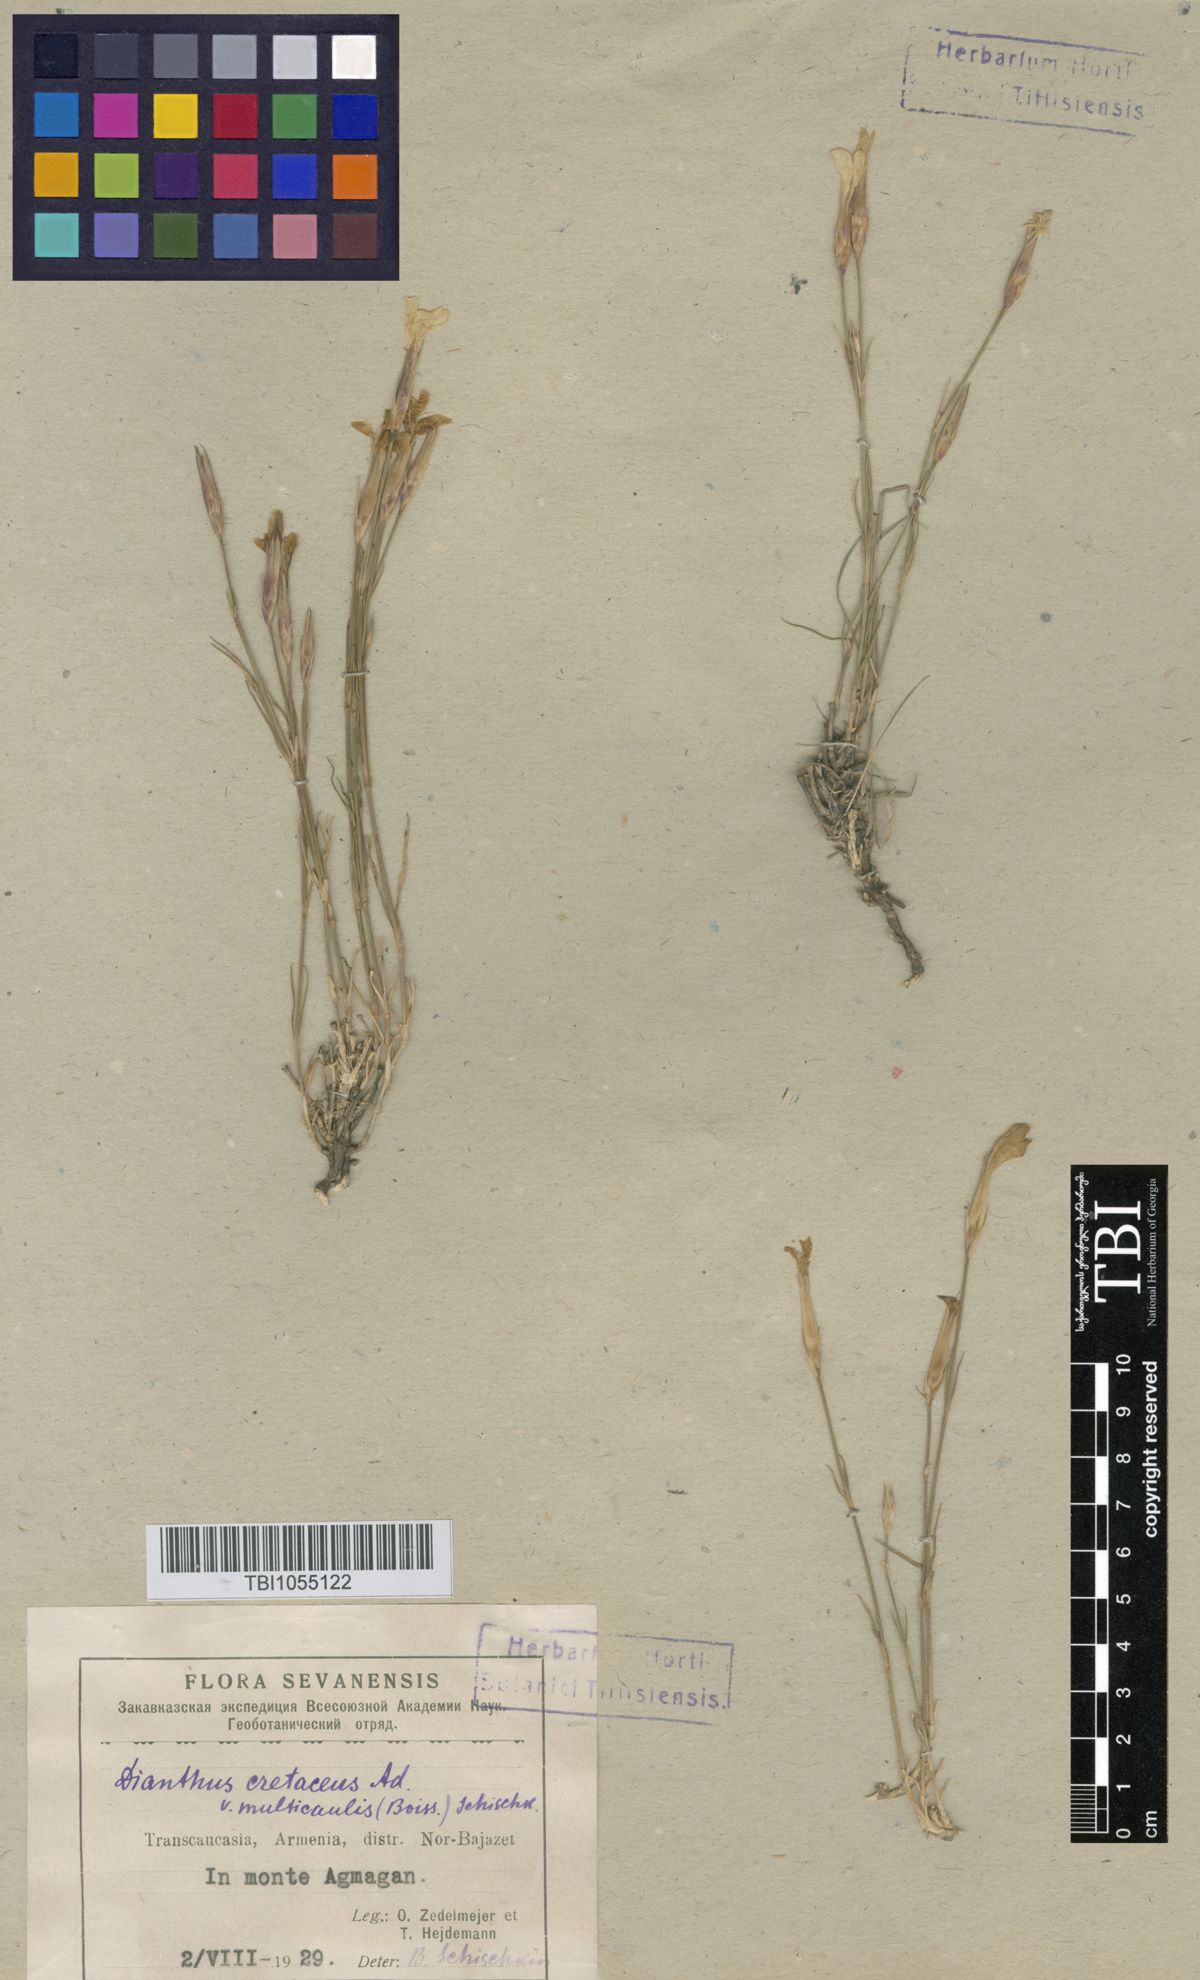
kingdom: Plantae
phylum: Tracheophyta
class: Magnoliopsida
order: Caryophyllales
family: Caryophyllaceae
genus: Dianthus
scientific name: Dianthus cretaceus
